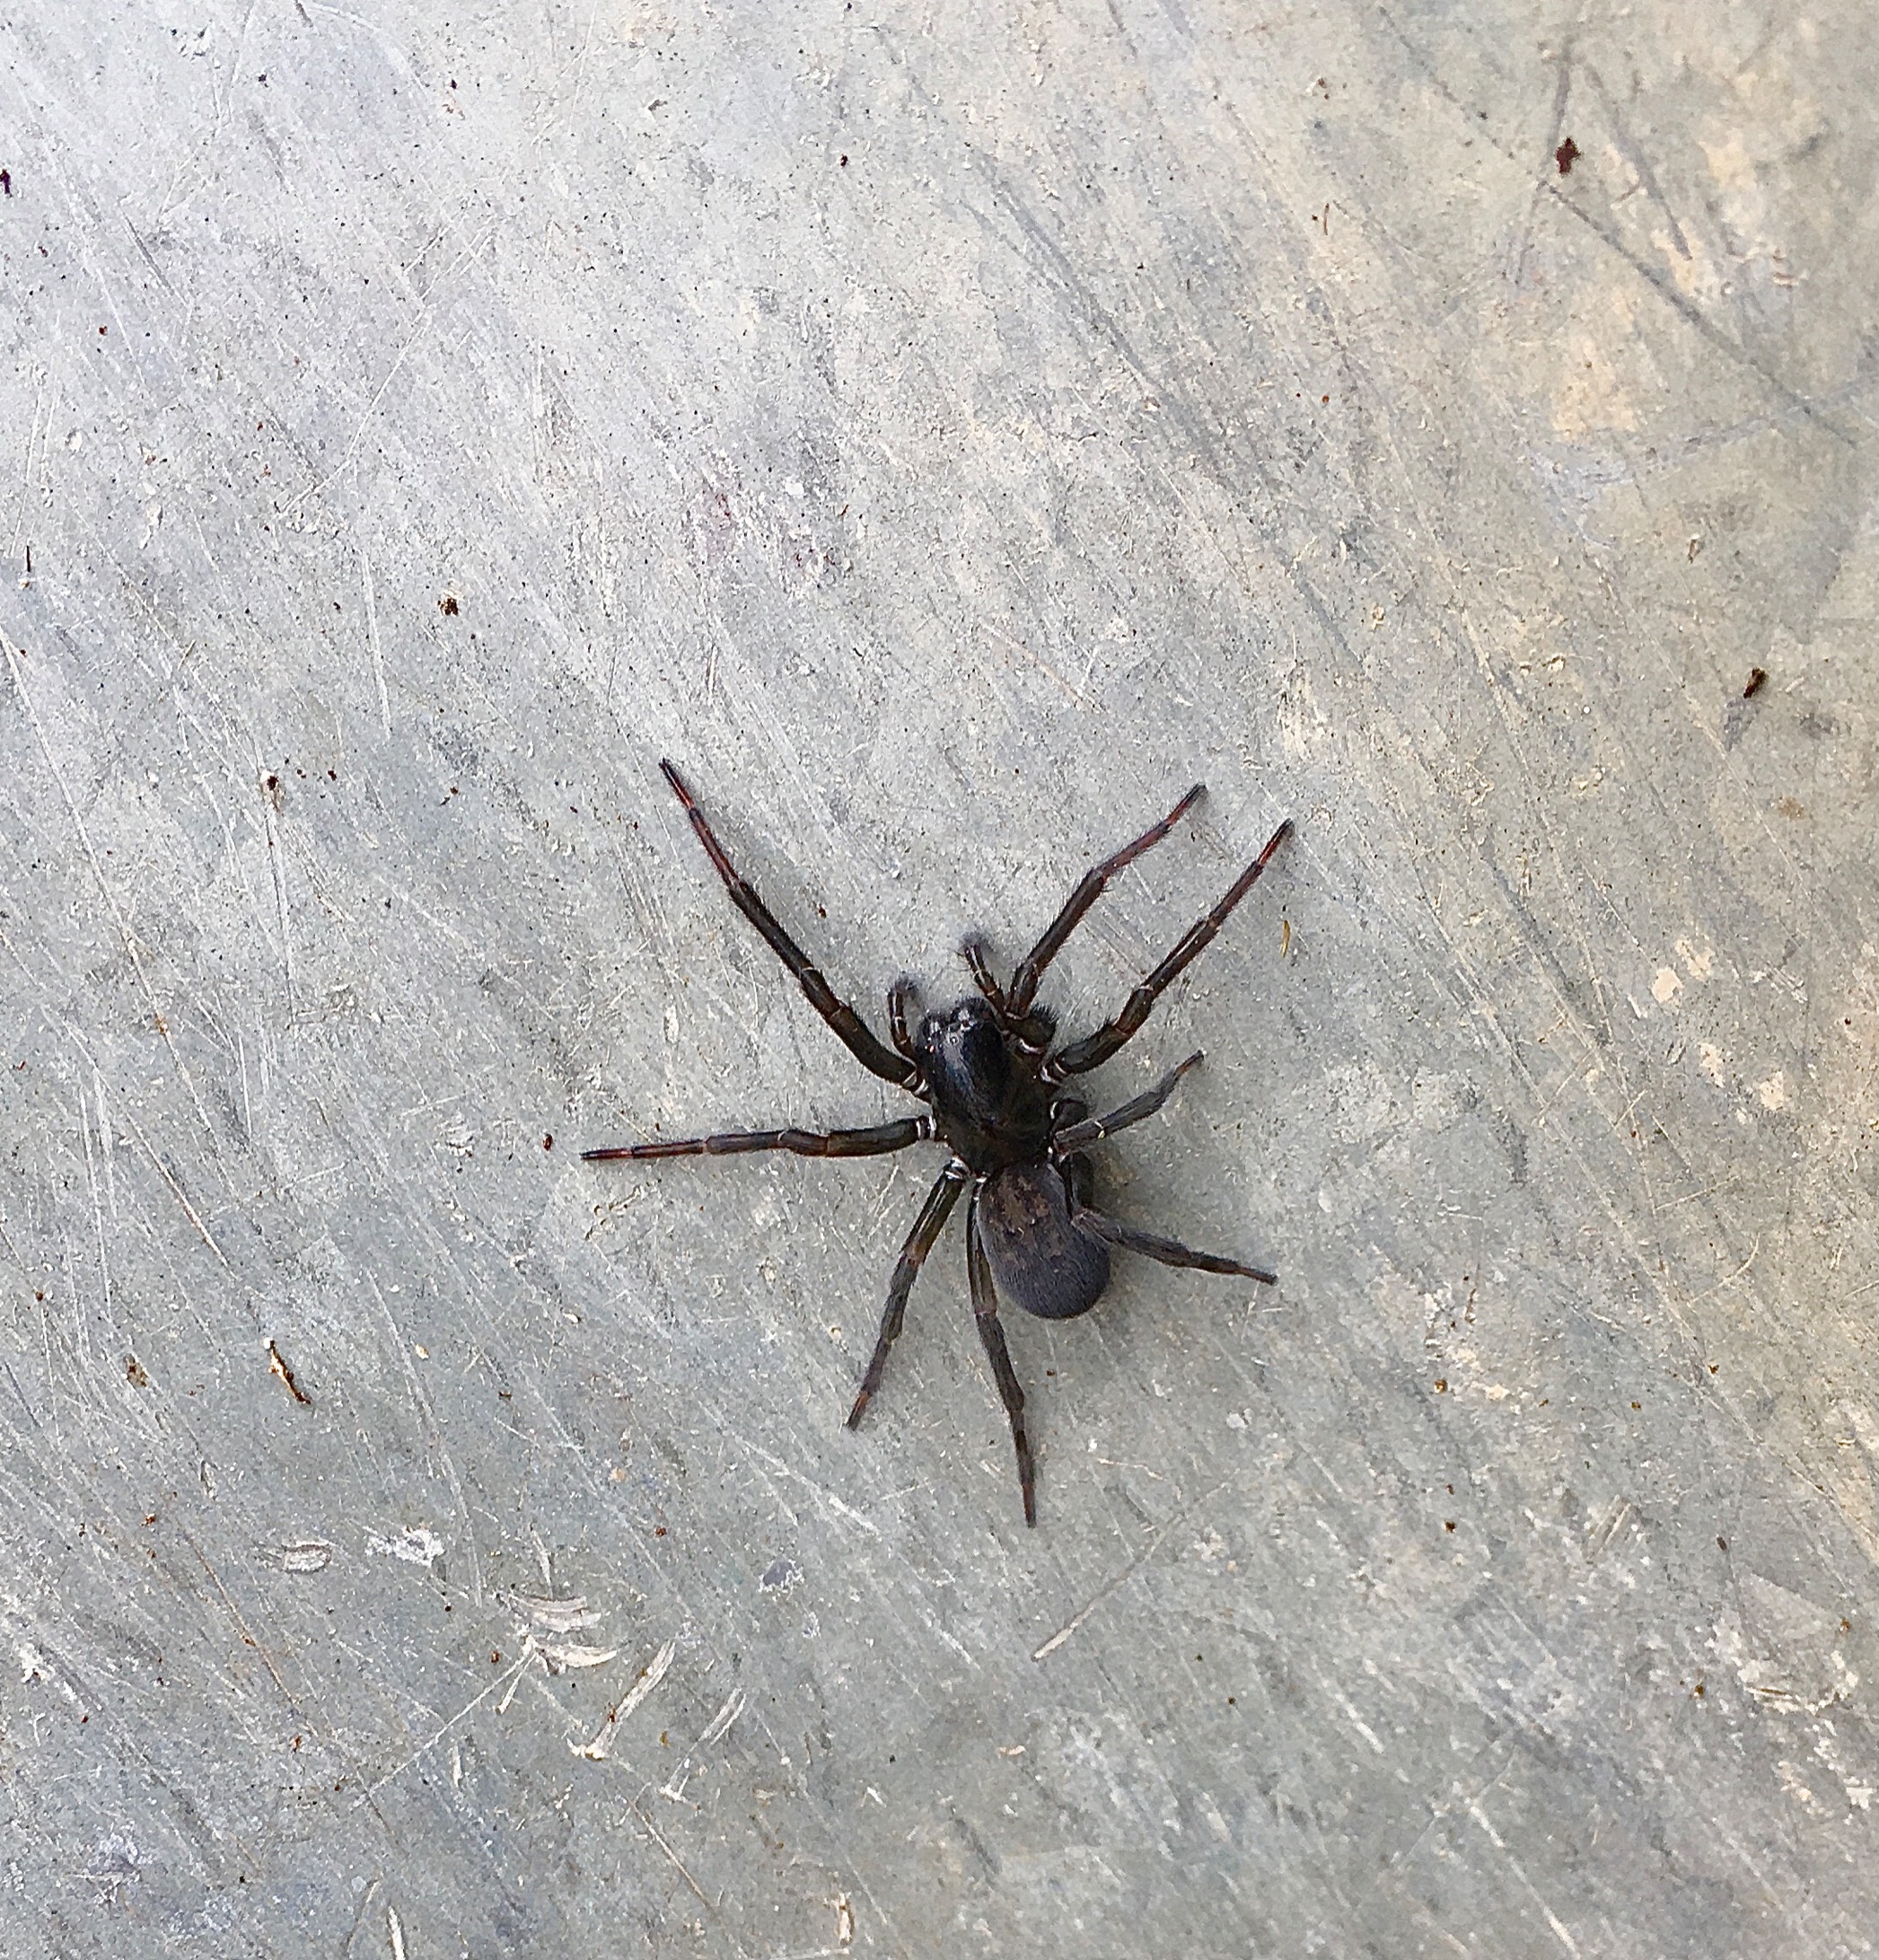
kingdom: Animalia
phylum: Arthropoda
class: Arachnida
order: Araneae
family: Amaurobiidae
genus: Amaurobius
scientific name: Amaurobius ferox
